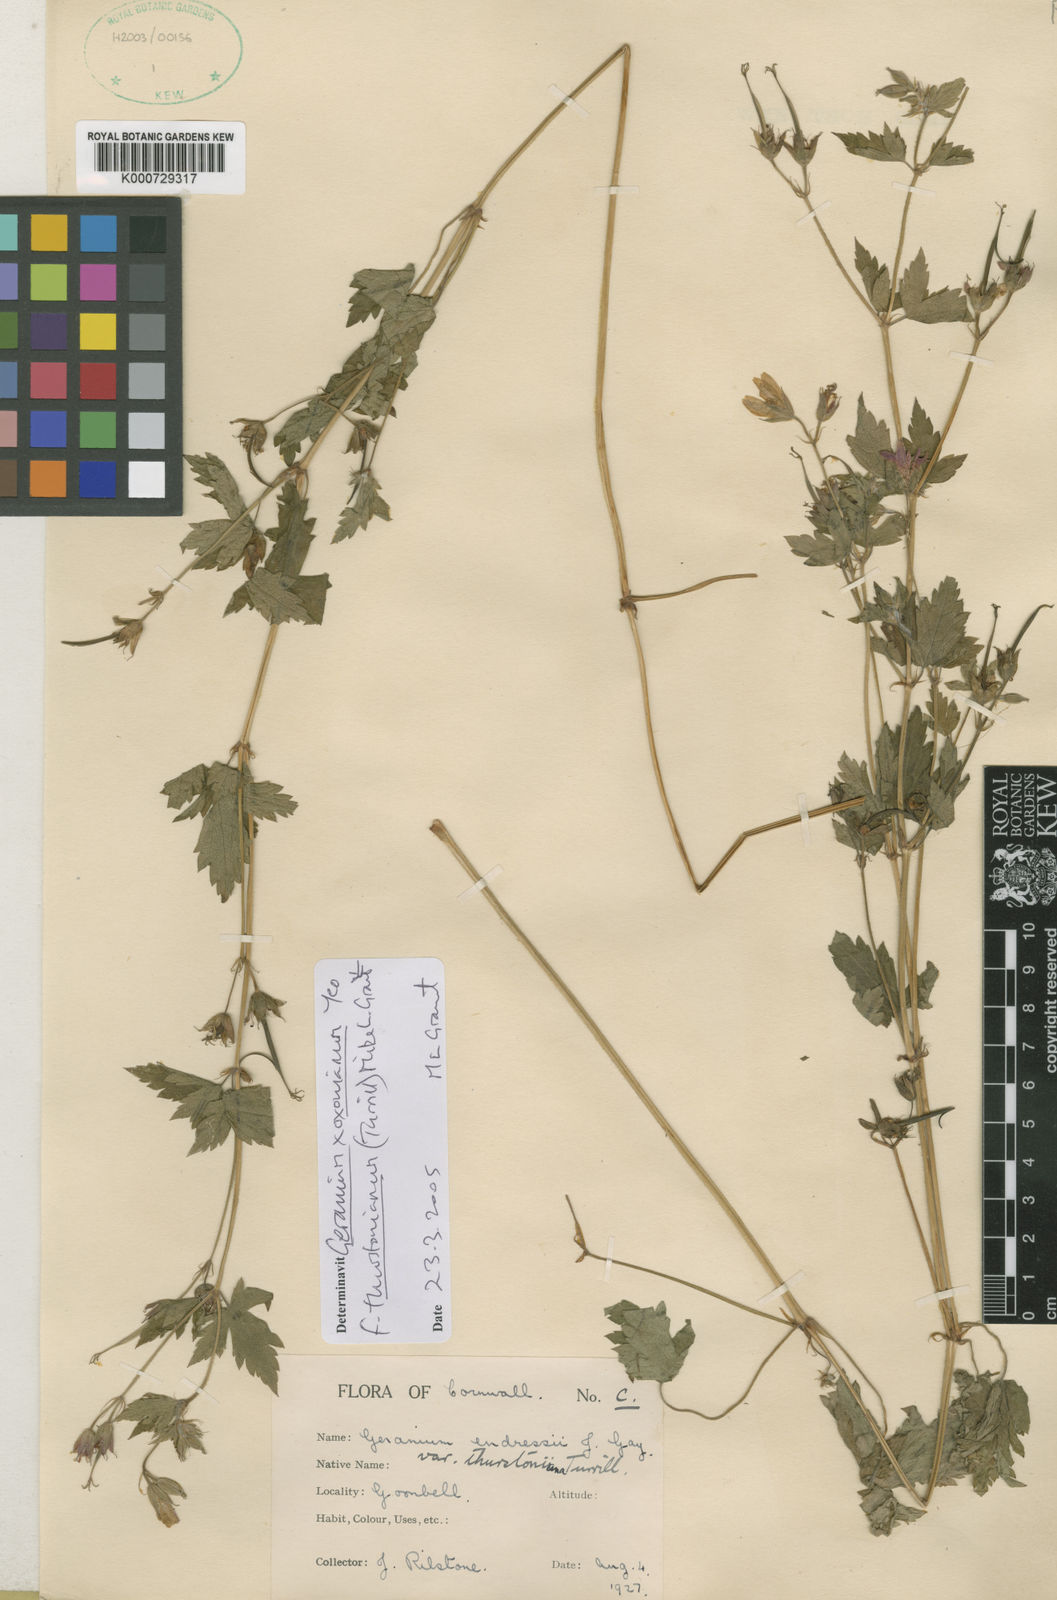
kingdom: Plantae
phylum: Tracheophyta
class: Magnoliopsida
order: Geraniales
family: Geraniaceae
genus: Geranium
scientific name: Geranium oxonianum
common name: Druce's crane's-bill
